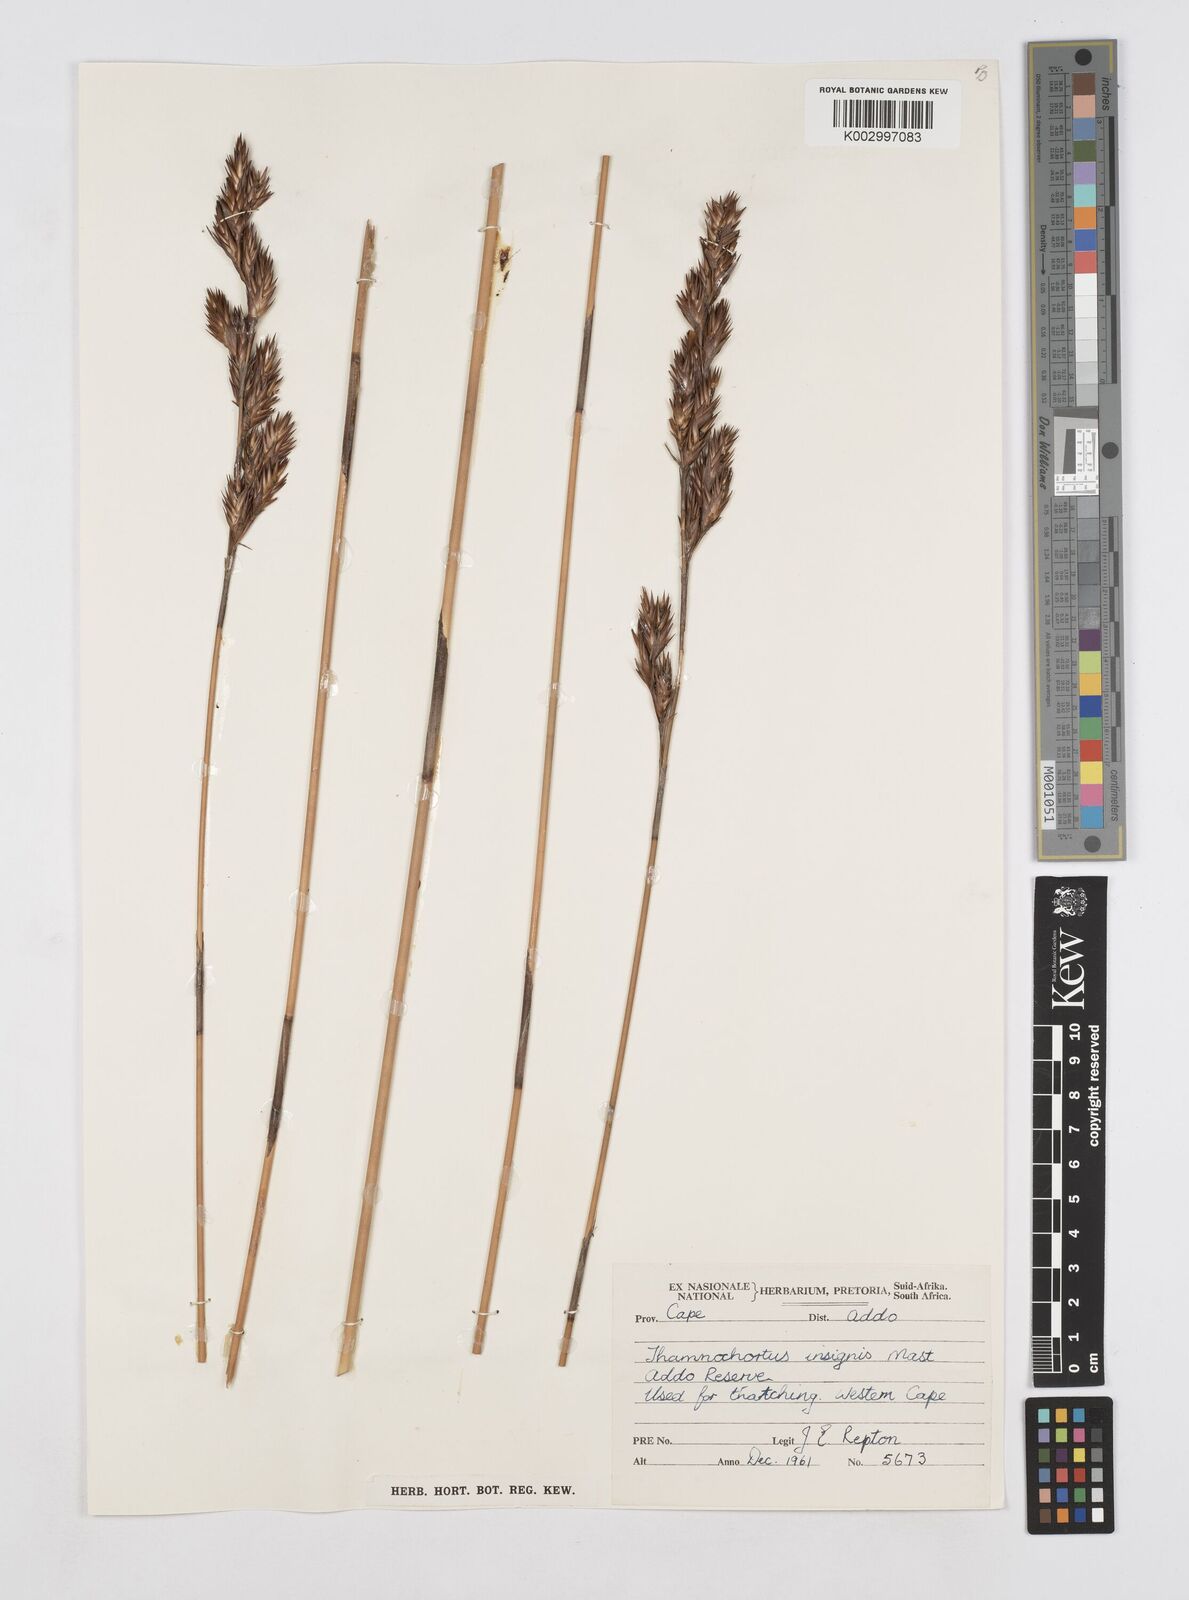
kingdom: Plantae
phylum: Tracheophyta
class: Liliopsida
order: Poales
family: Restionaceae
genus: Thamnochortus
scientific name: Thamnochortus insignis
